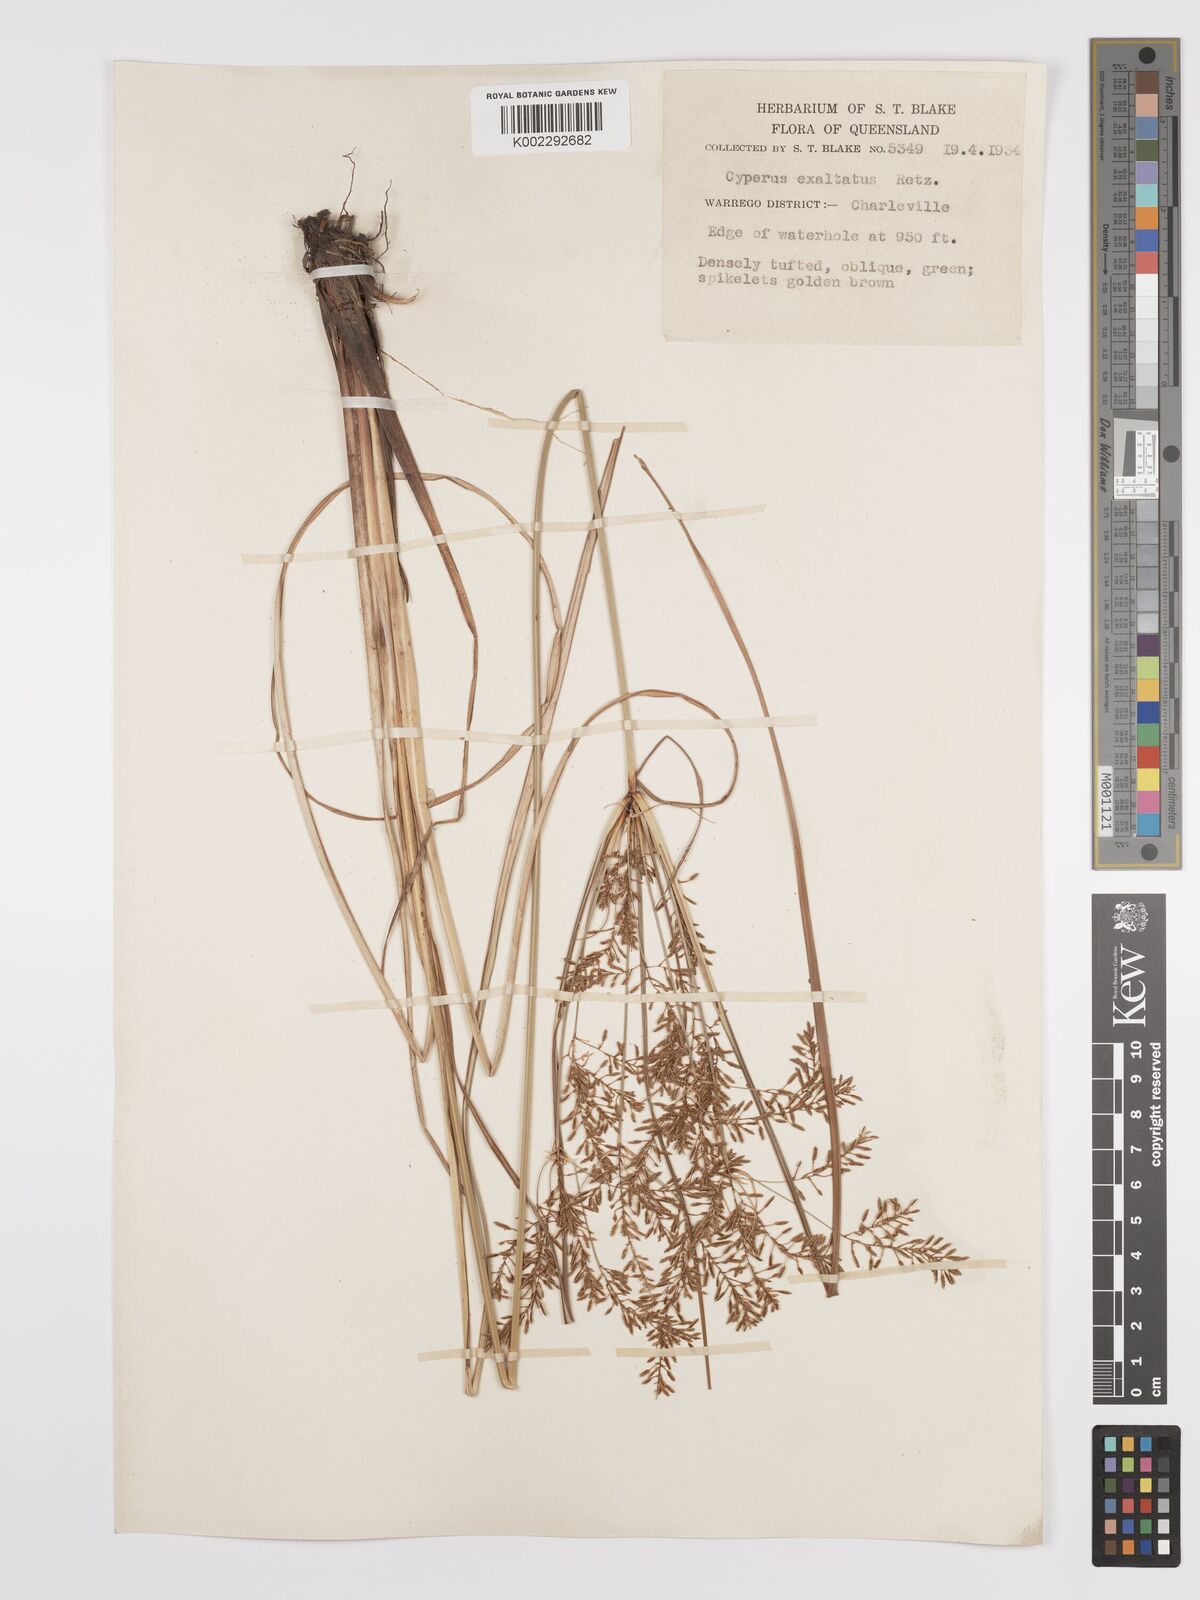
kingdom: Plantae
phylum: Tracheophyta
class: Liliopsida
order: Poales
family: Cyperaceae
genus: Cyperus
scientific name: Cyperus exaltatus
